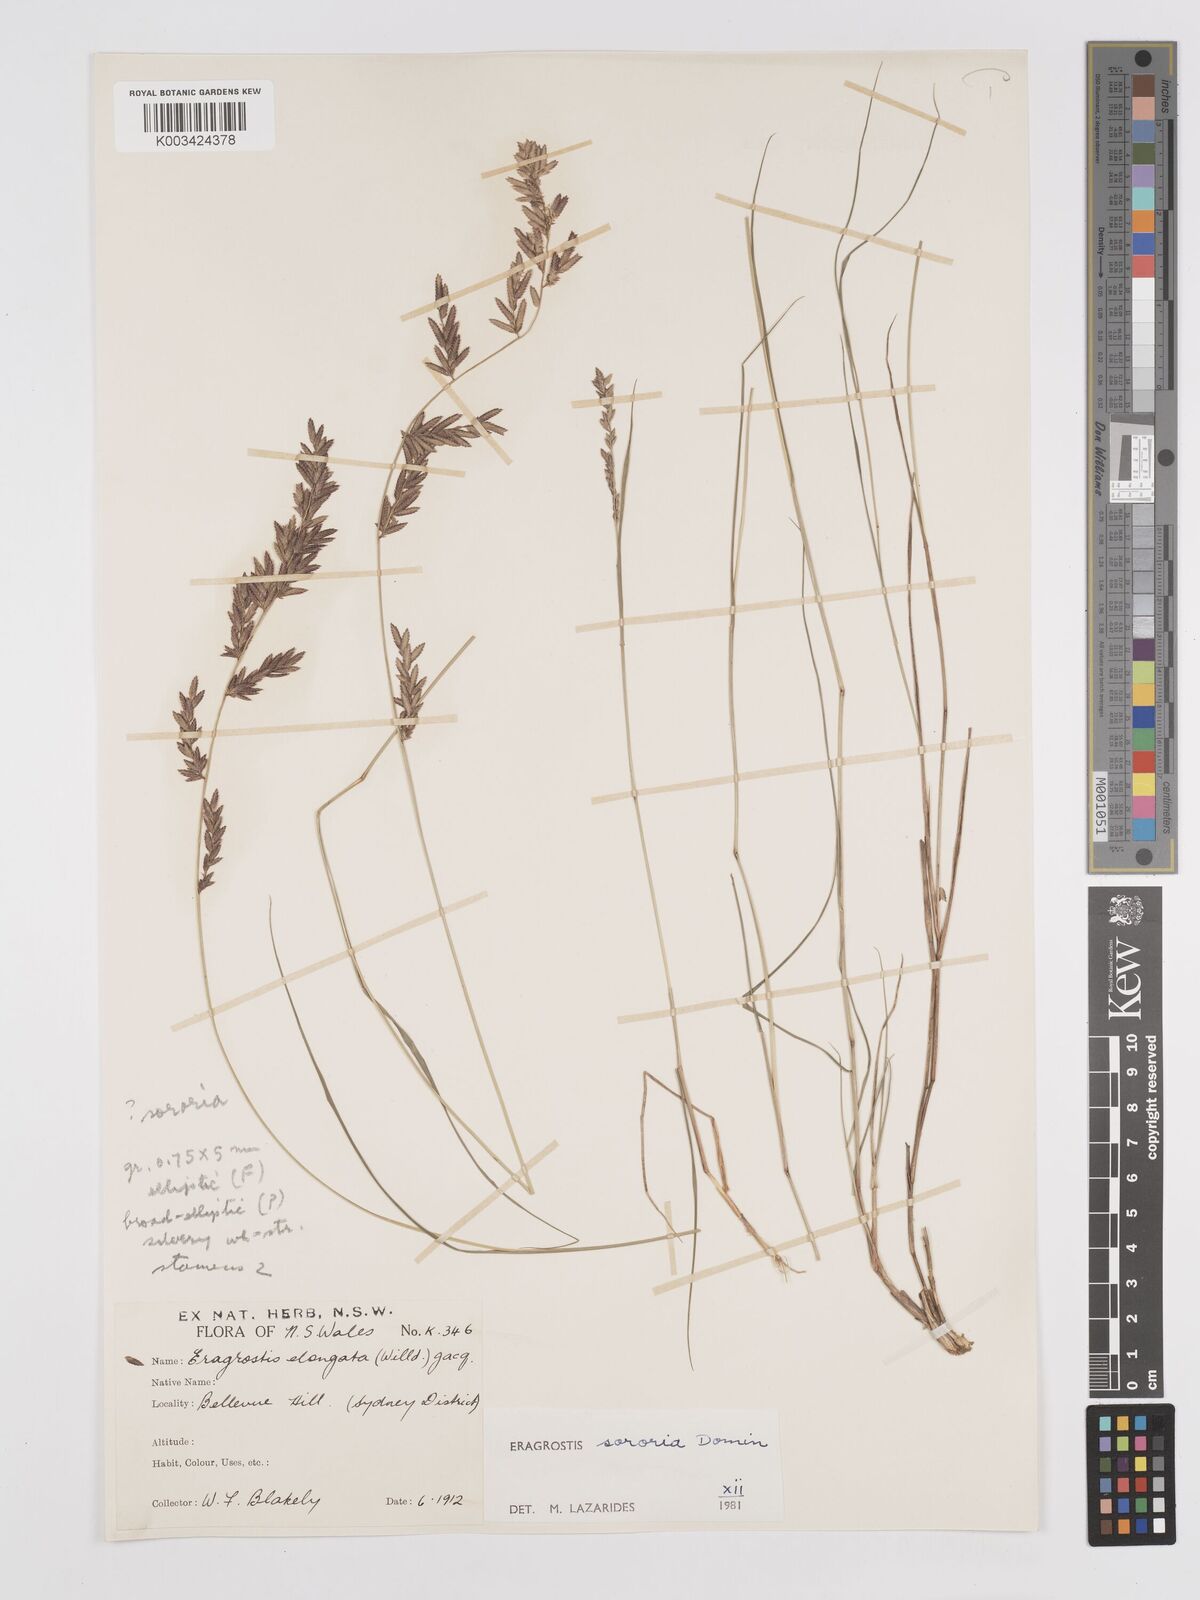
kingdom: Plantae
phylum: Tracheophyta
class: Liliopsida
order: Poales
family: Poaceae
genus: Eragrostis
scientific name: Eragrostis sororia
